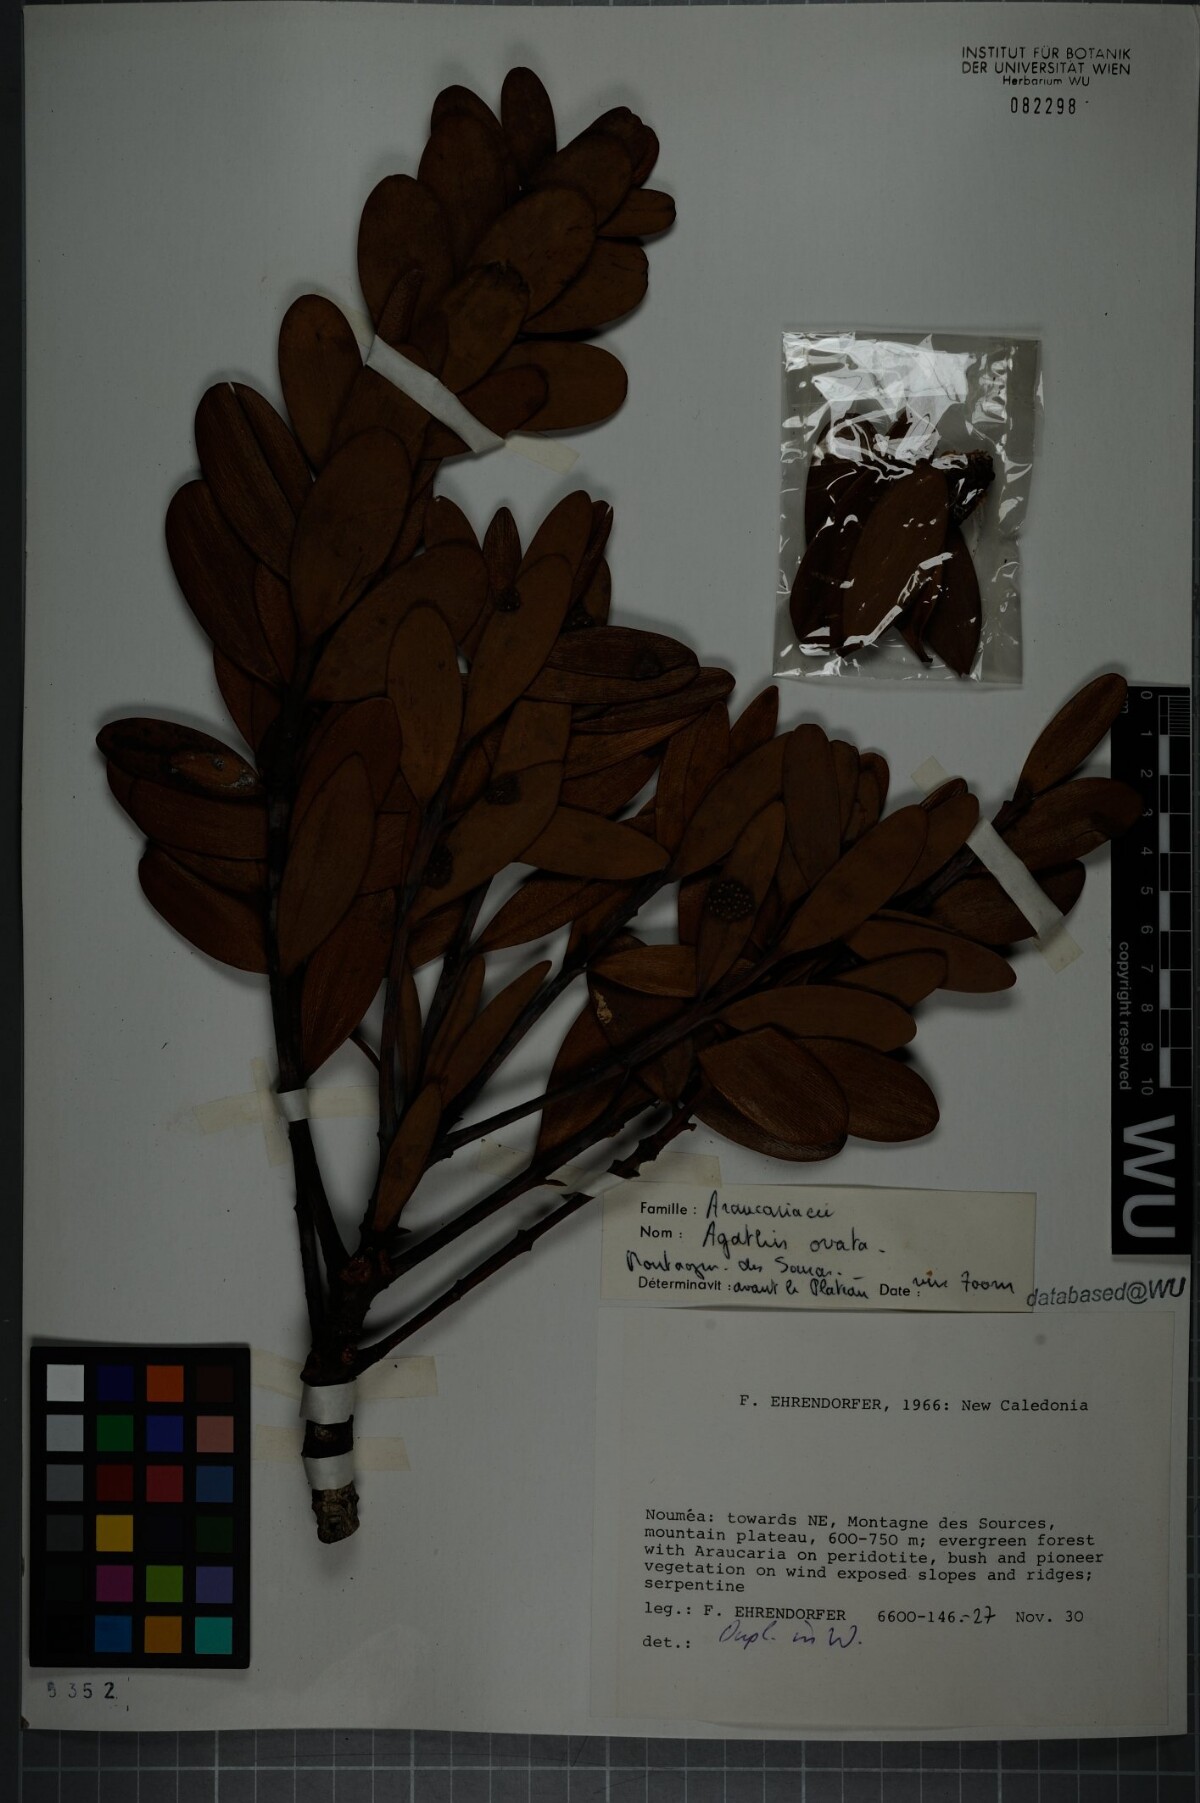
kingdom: Plantae
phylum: Tracheophyta
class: Pinopsida
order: Pinales
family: Araucariaceae
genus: Agathis
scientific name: Agathis ovata
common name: Scrub kauri
